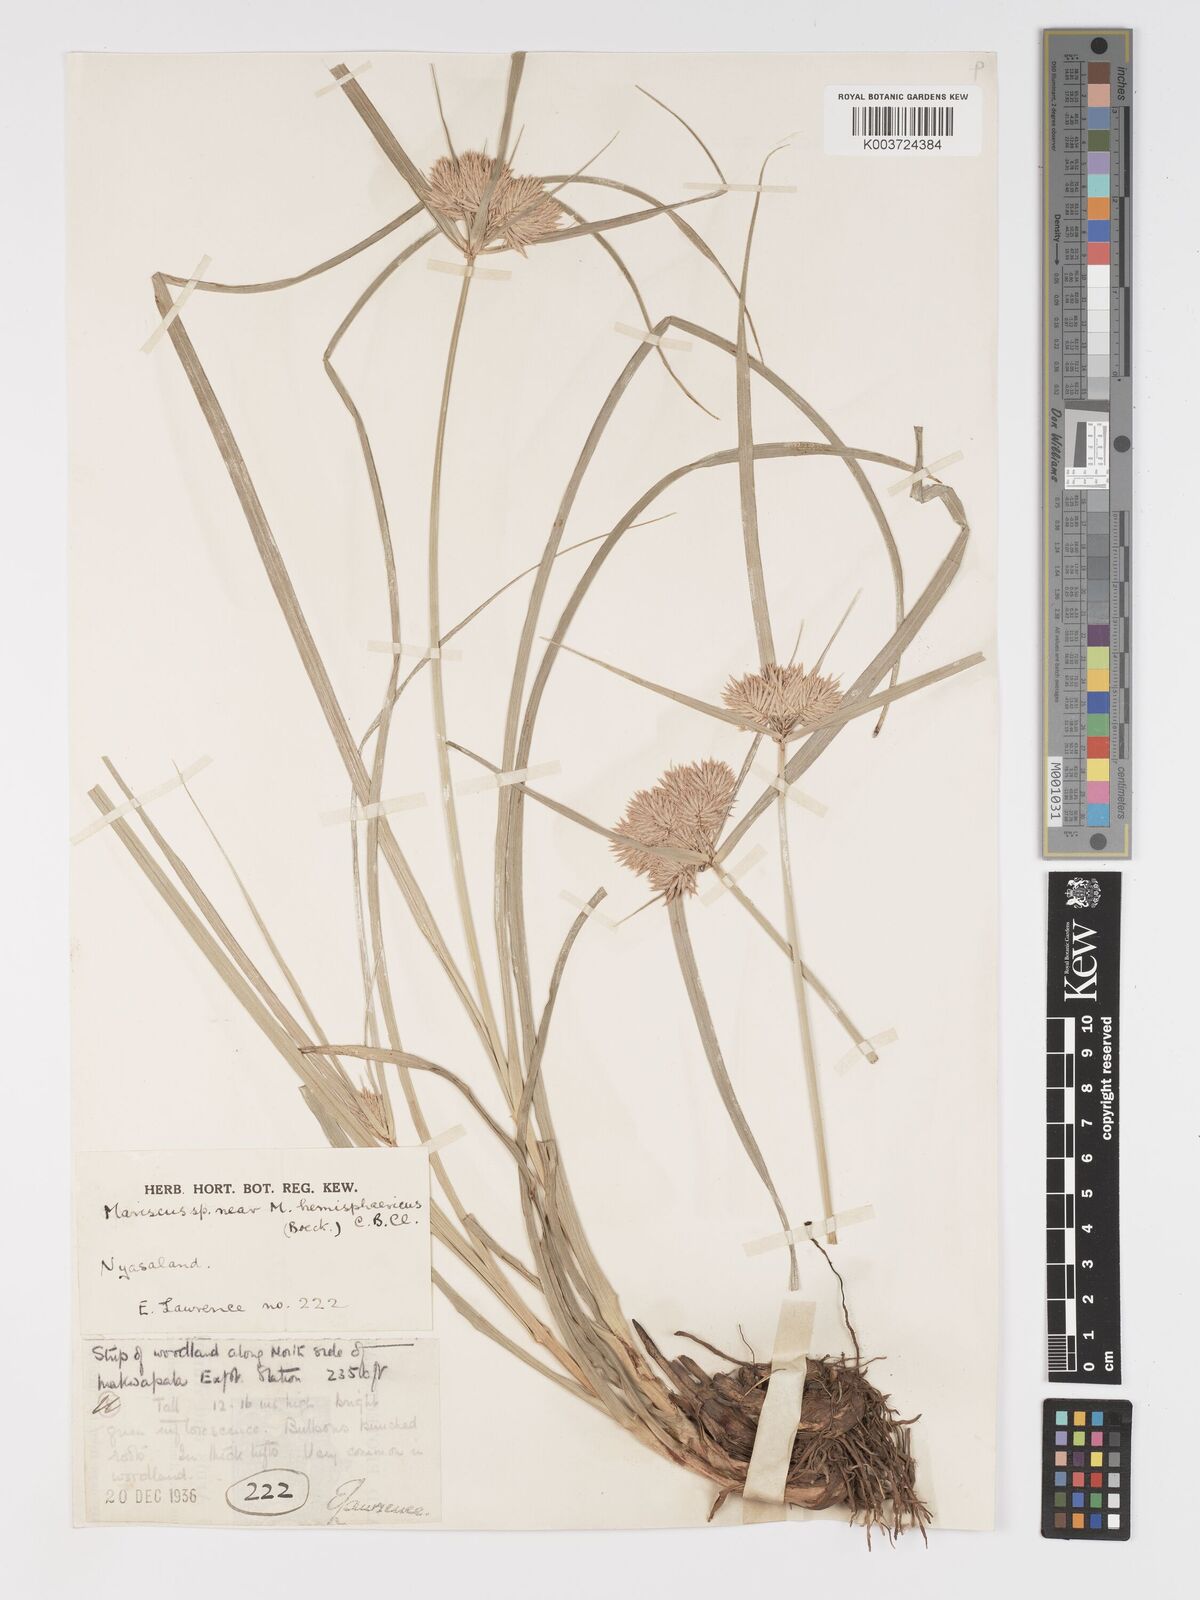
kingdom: Plantae
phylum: Tracheophyta
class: Liliopsida
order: Poales
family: Cyperaceae
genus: Cyperus
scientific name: Cyperus hemisphaericus
